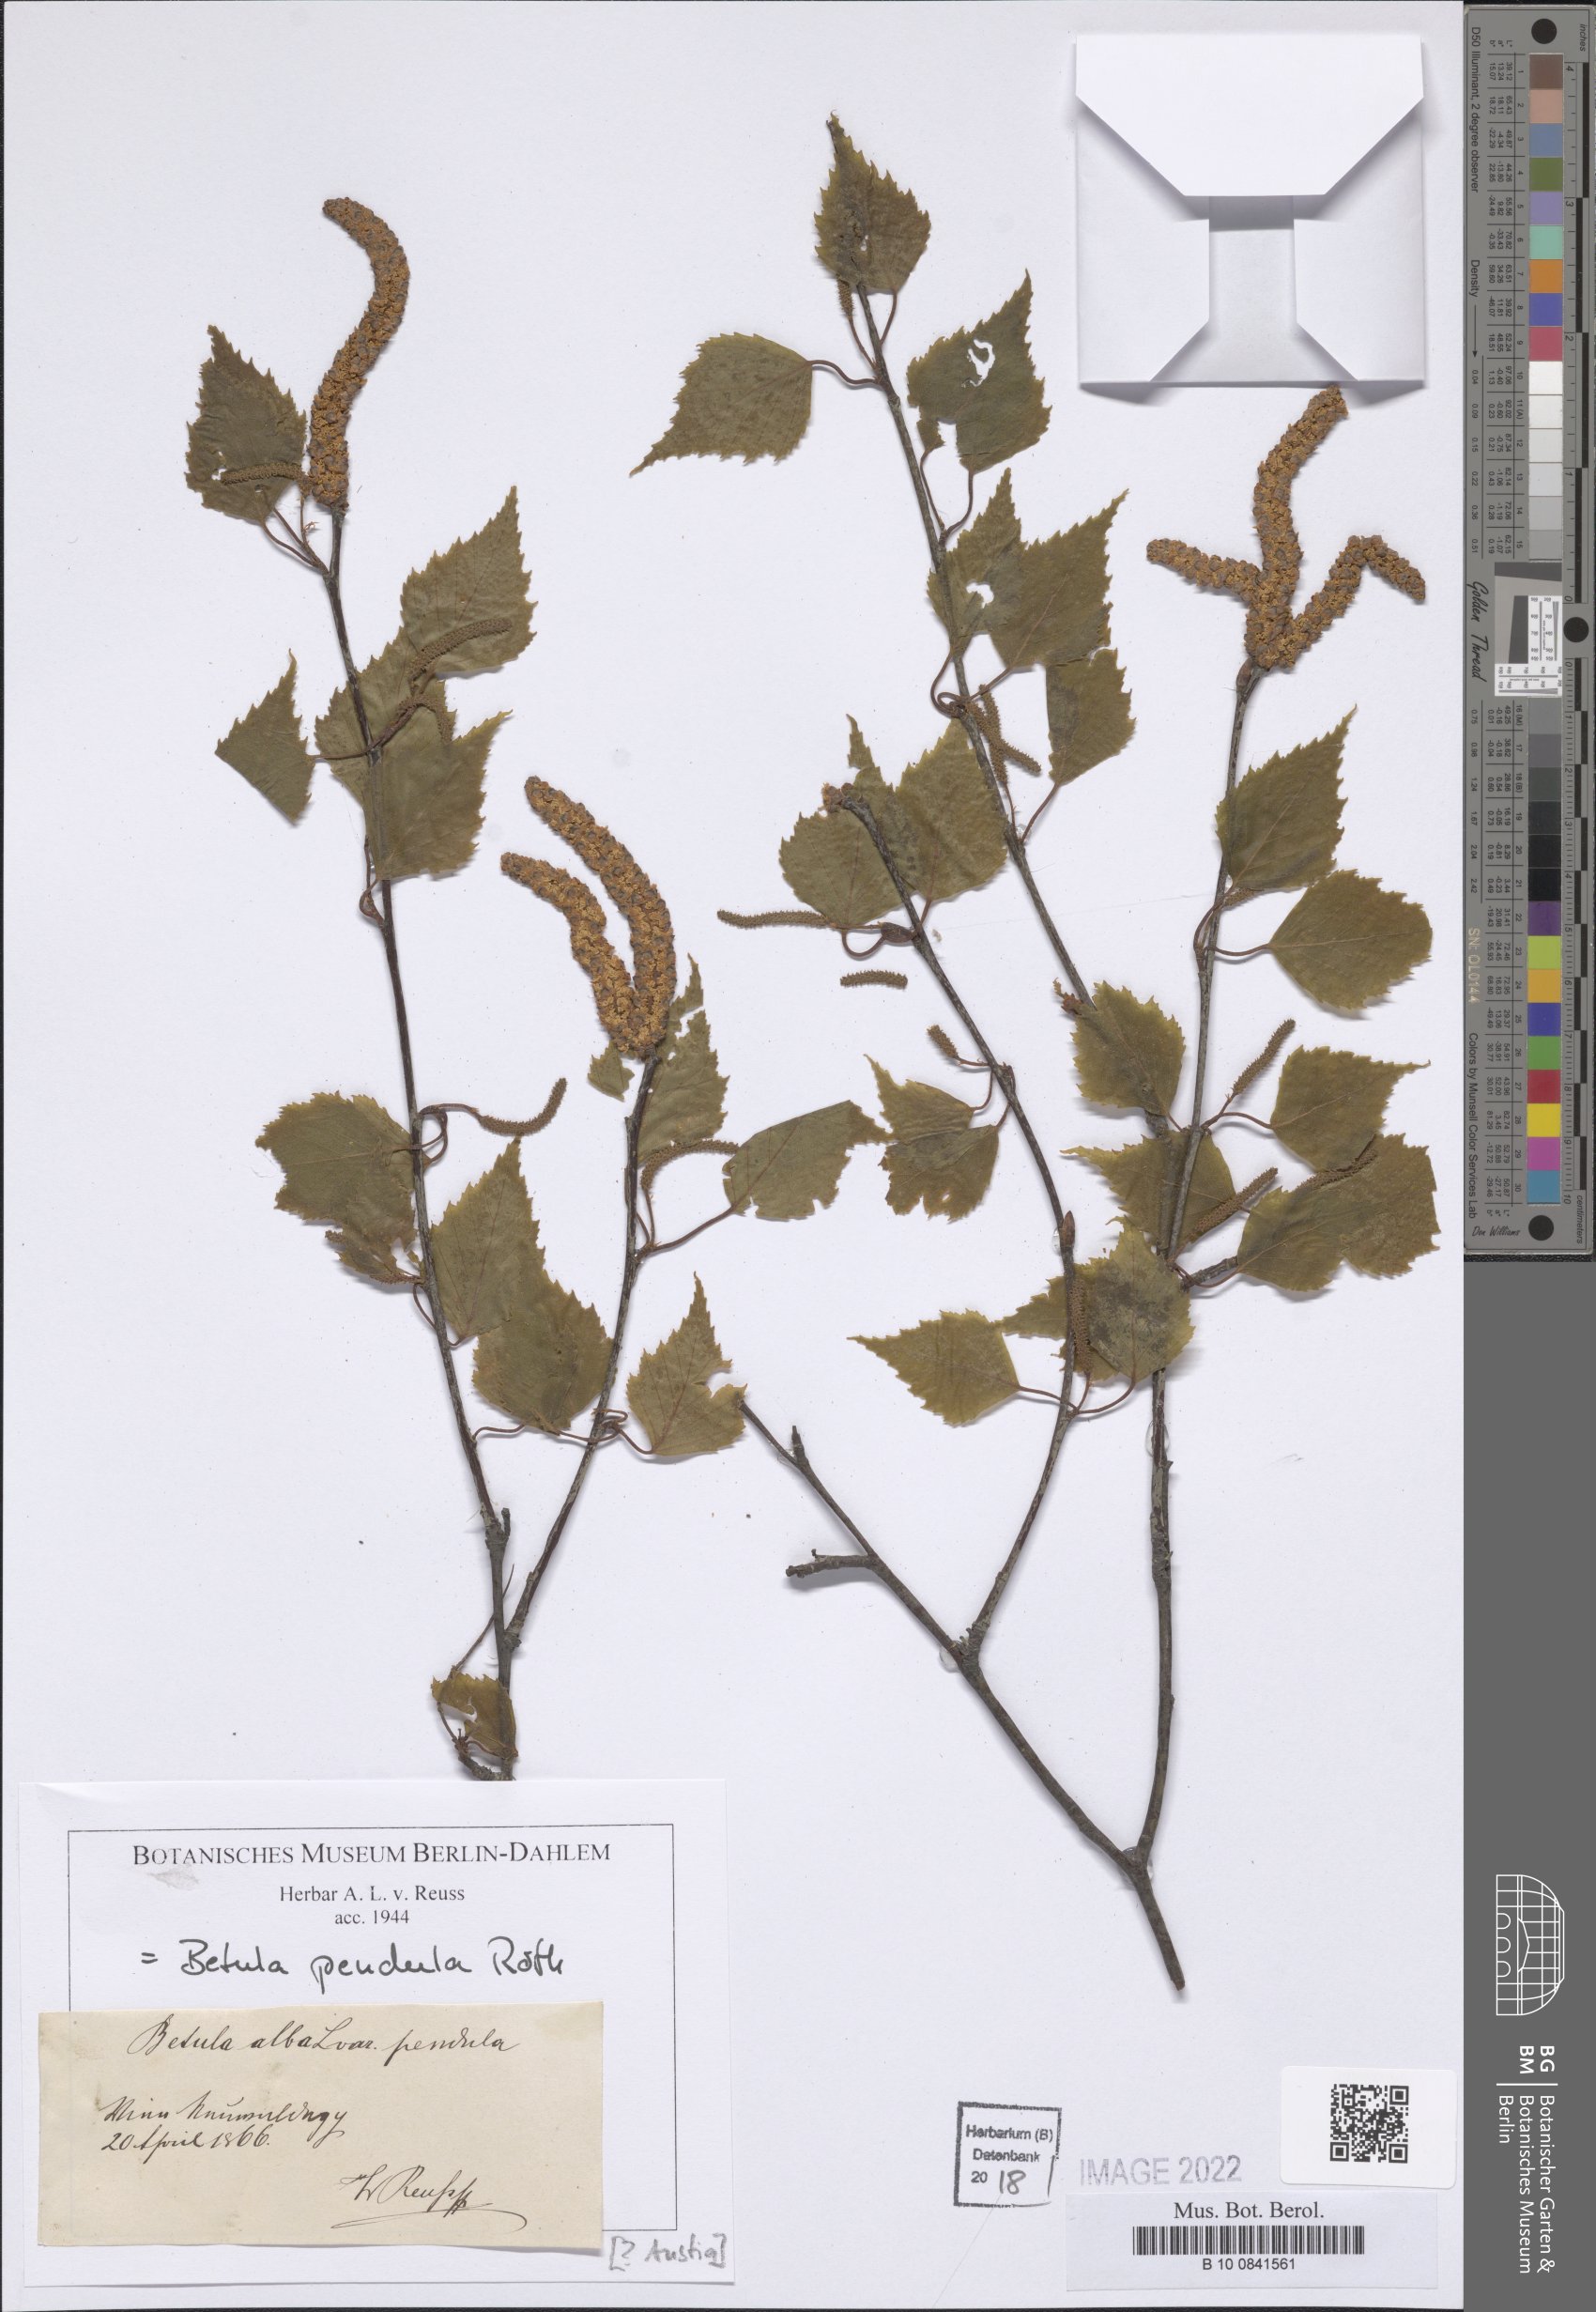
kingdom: Plantae
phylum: Tracheophyta
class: Magnoliopsida
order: Fagales
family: Betulaceae
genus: Betula
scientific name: Betula pendula
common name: Silver birch
